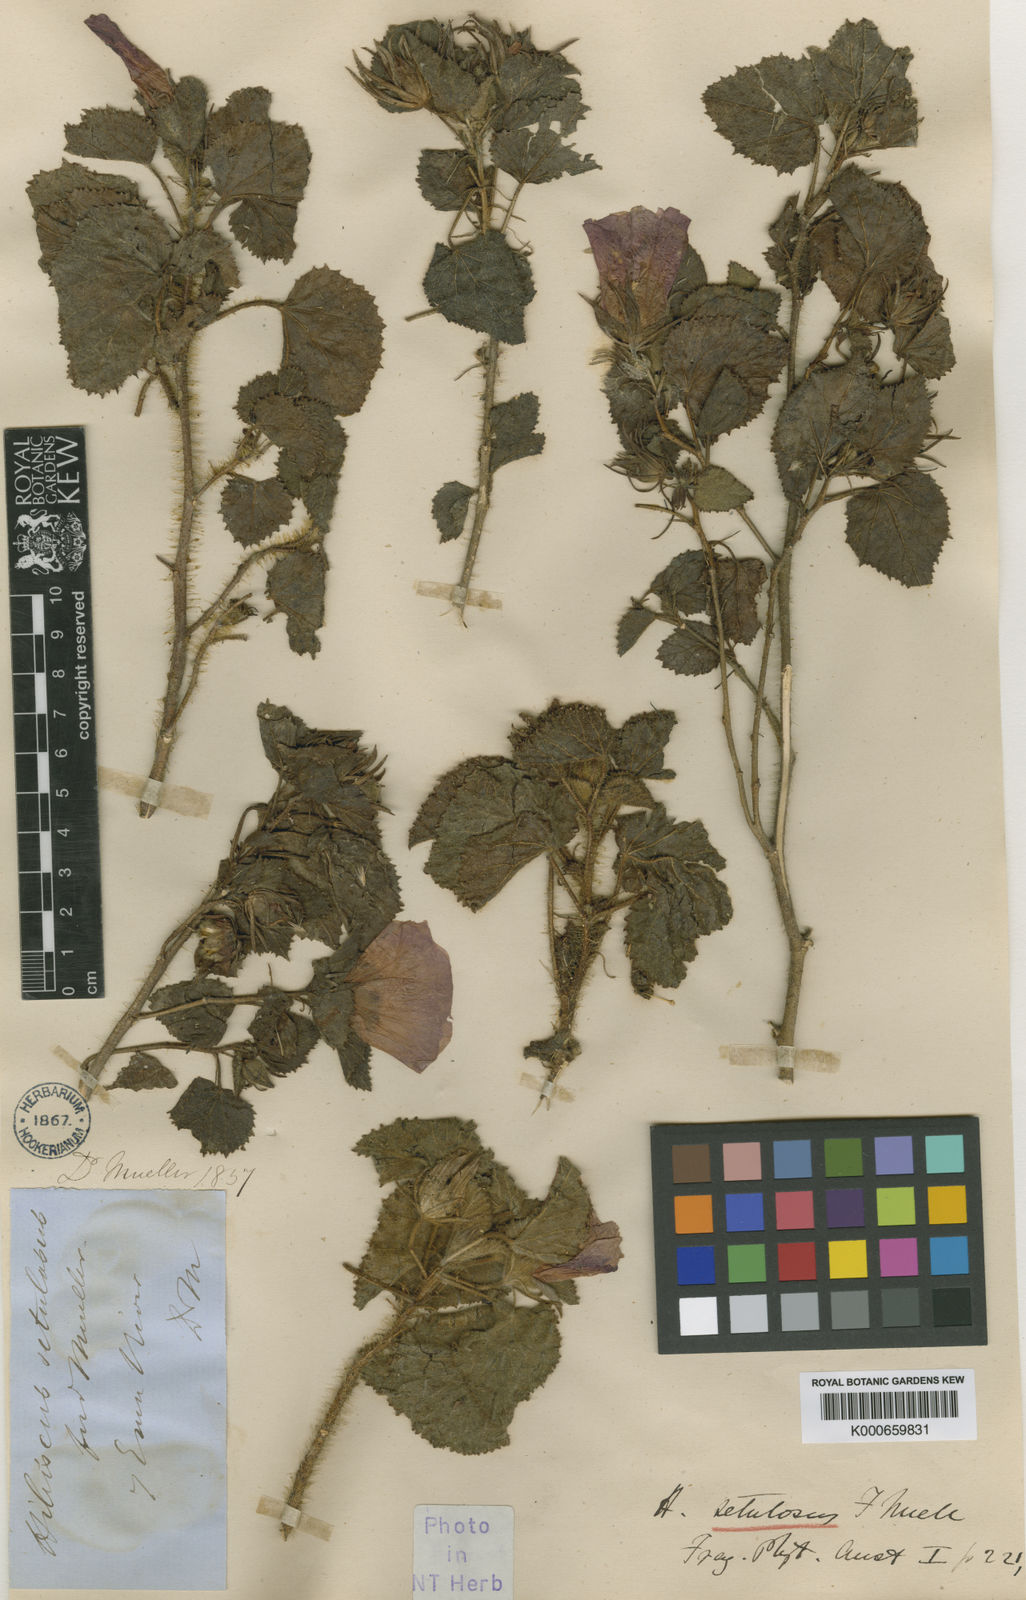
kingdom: Plantae
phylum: Tracheophyta
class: Magnoliopsida
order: Malvales
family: Malvaceae
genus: Hibiscus
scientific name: Hibiscus setulosus
